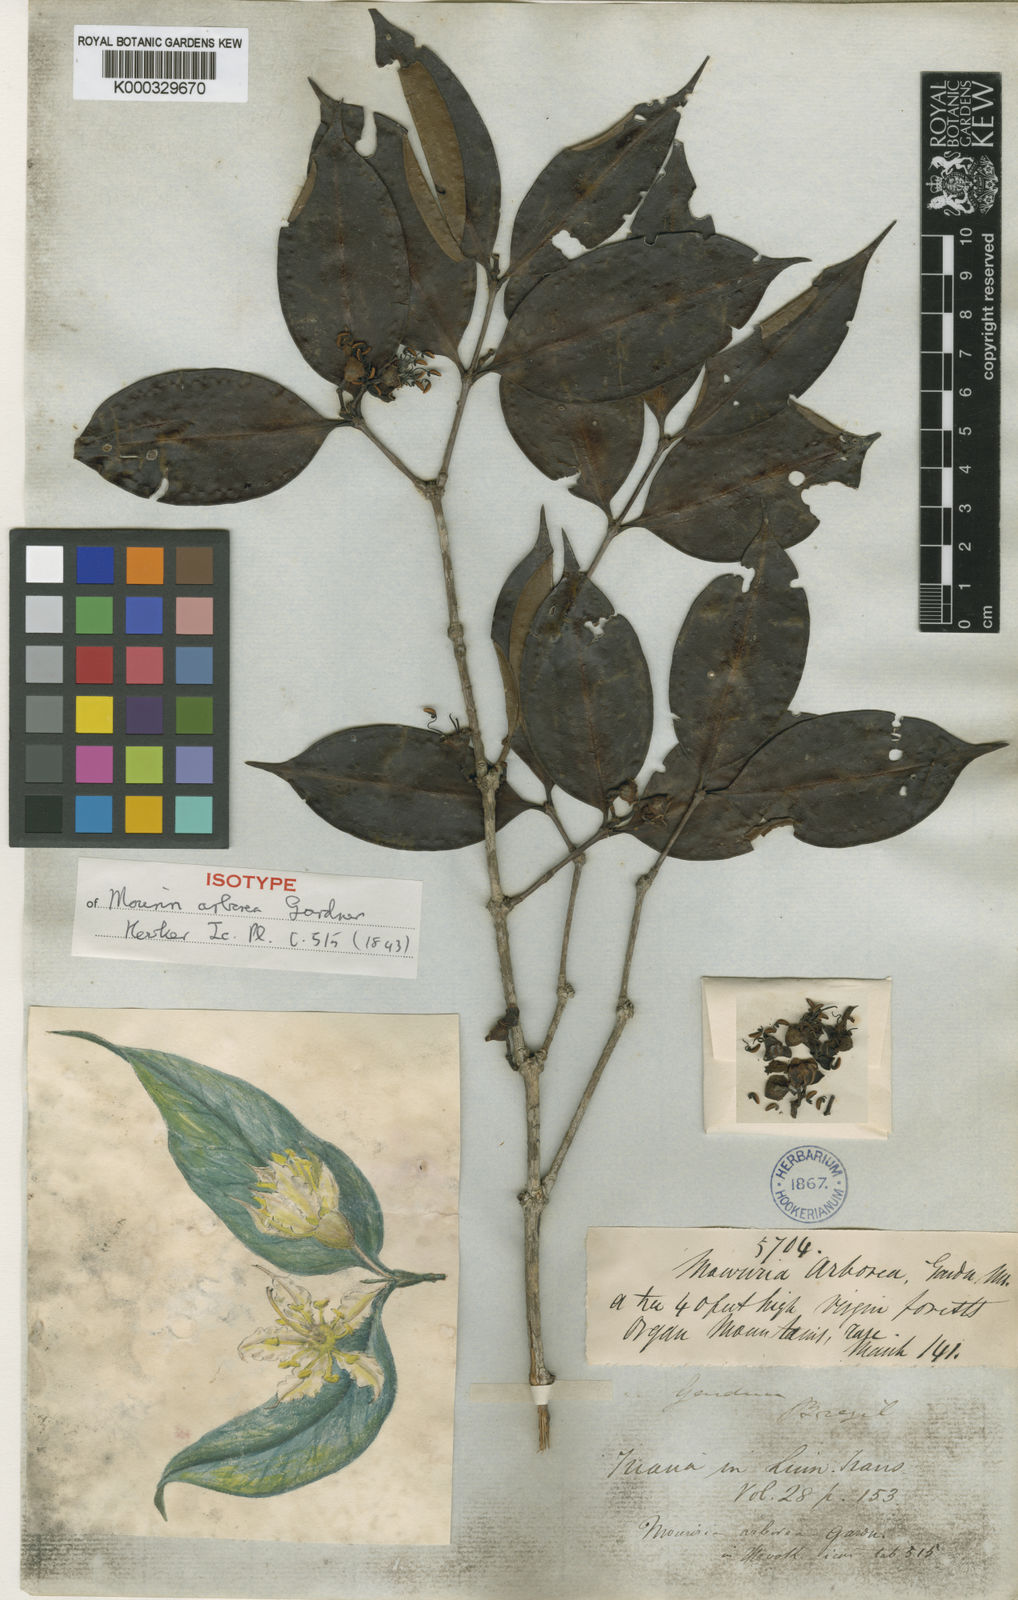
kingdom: Plantae
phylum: Tracheophyta
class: Magnoliopsida
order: Myrtales
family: Melastomataceae
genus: Mouriri
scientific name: Mouriri arborea
